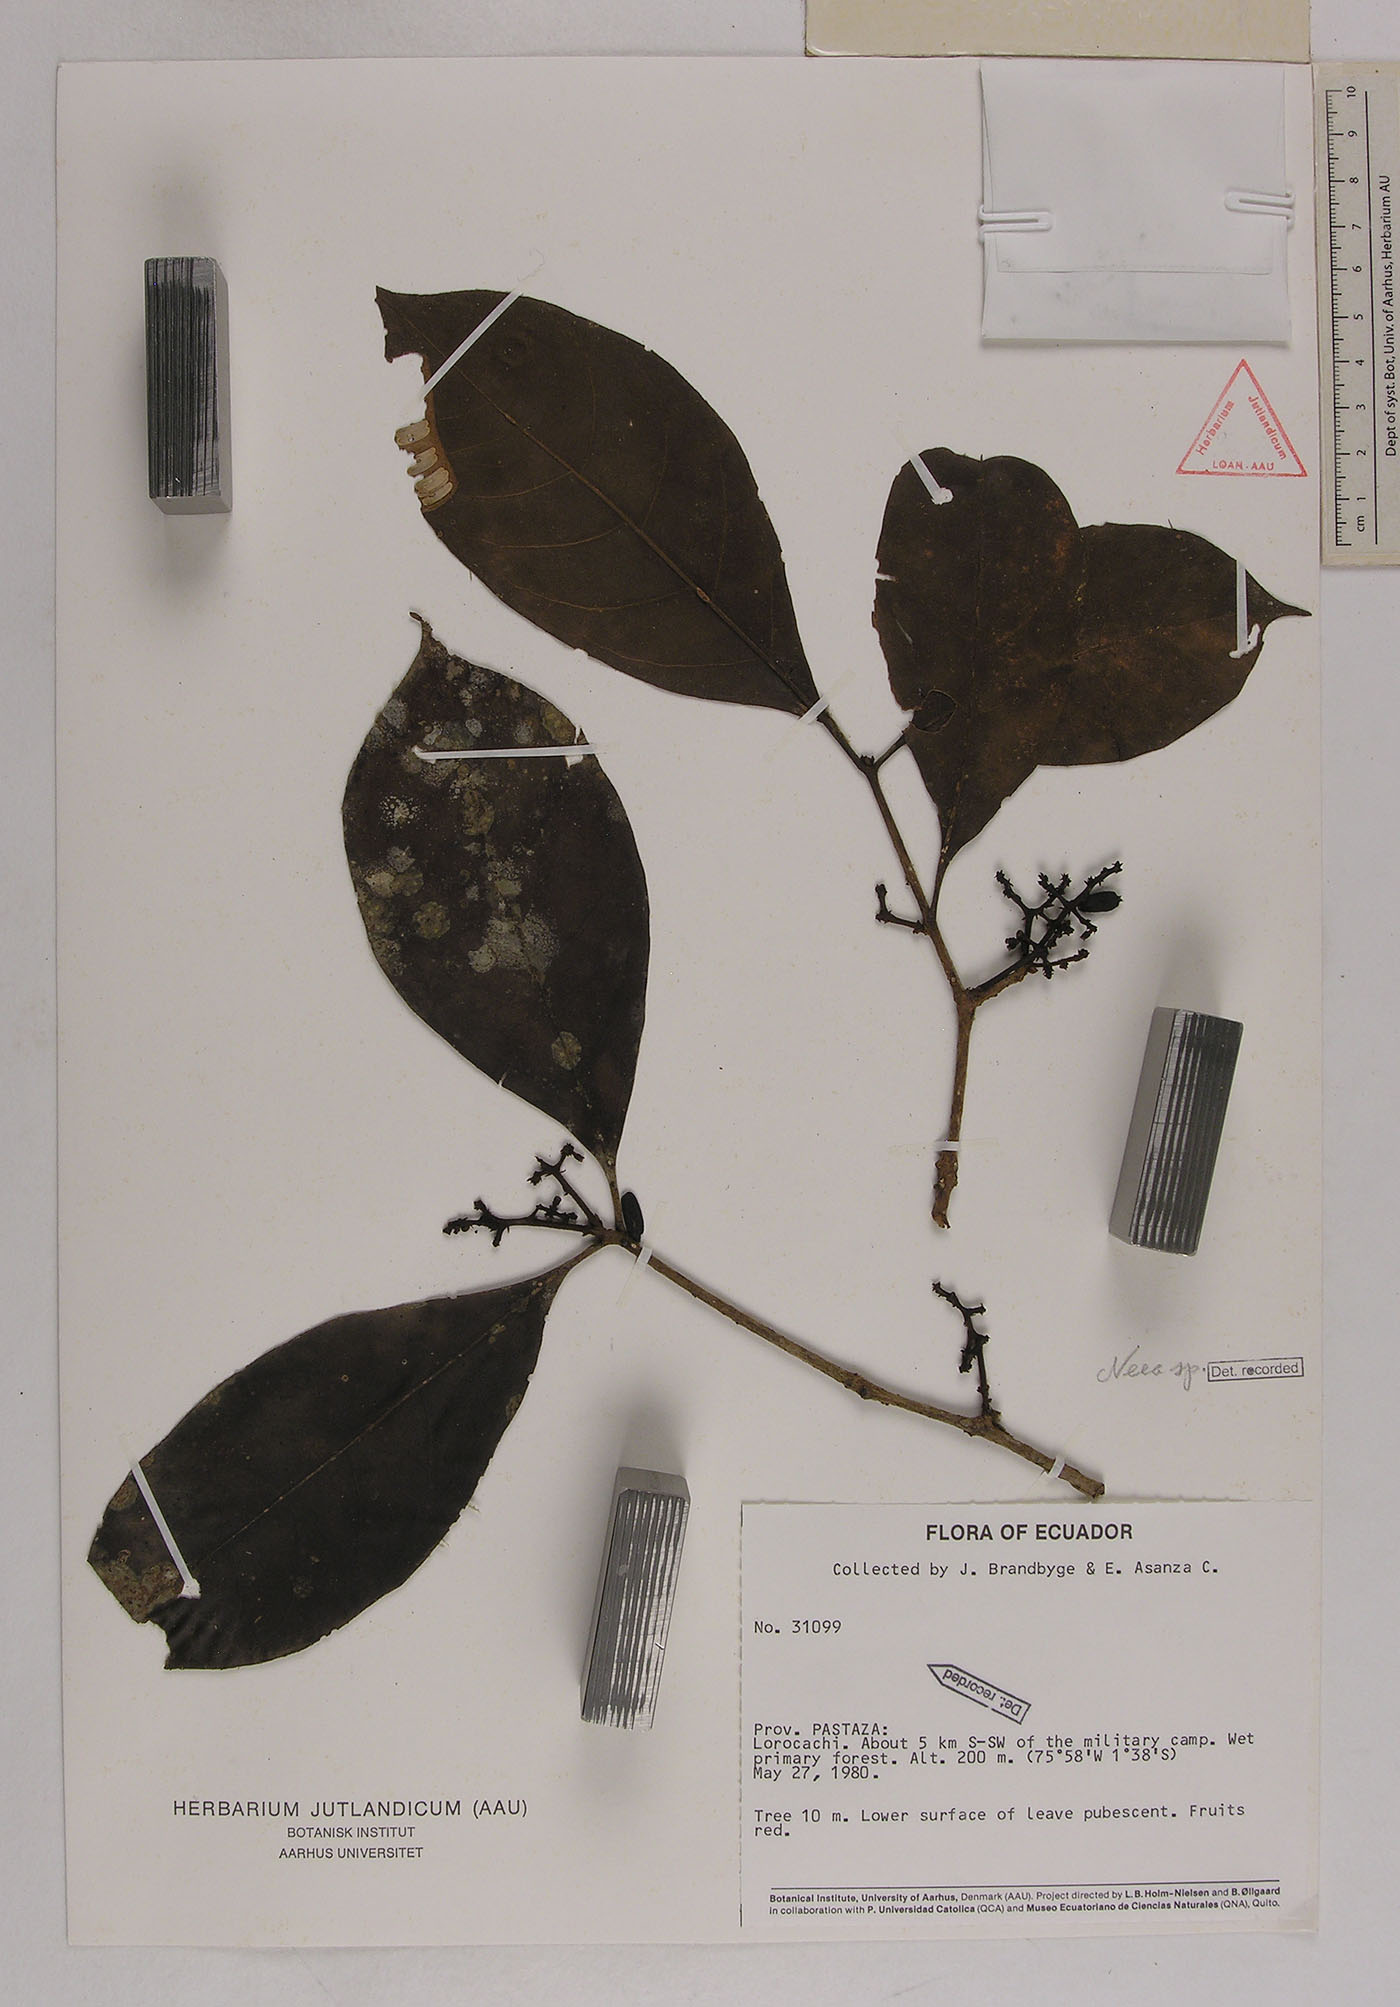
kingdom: Plantae
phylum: Tracheophyta
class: Magnoliopsida
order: Caryophyllales
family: Nyctaginaceae
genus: Neea
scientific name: Neea
